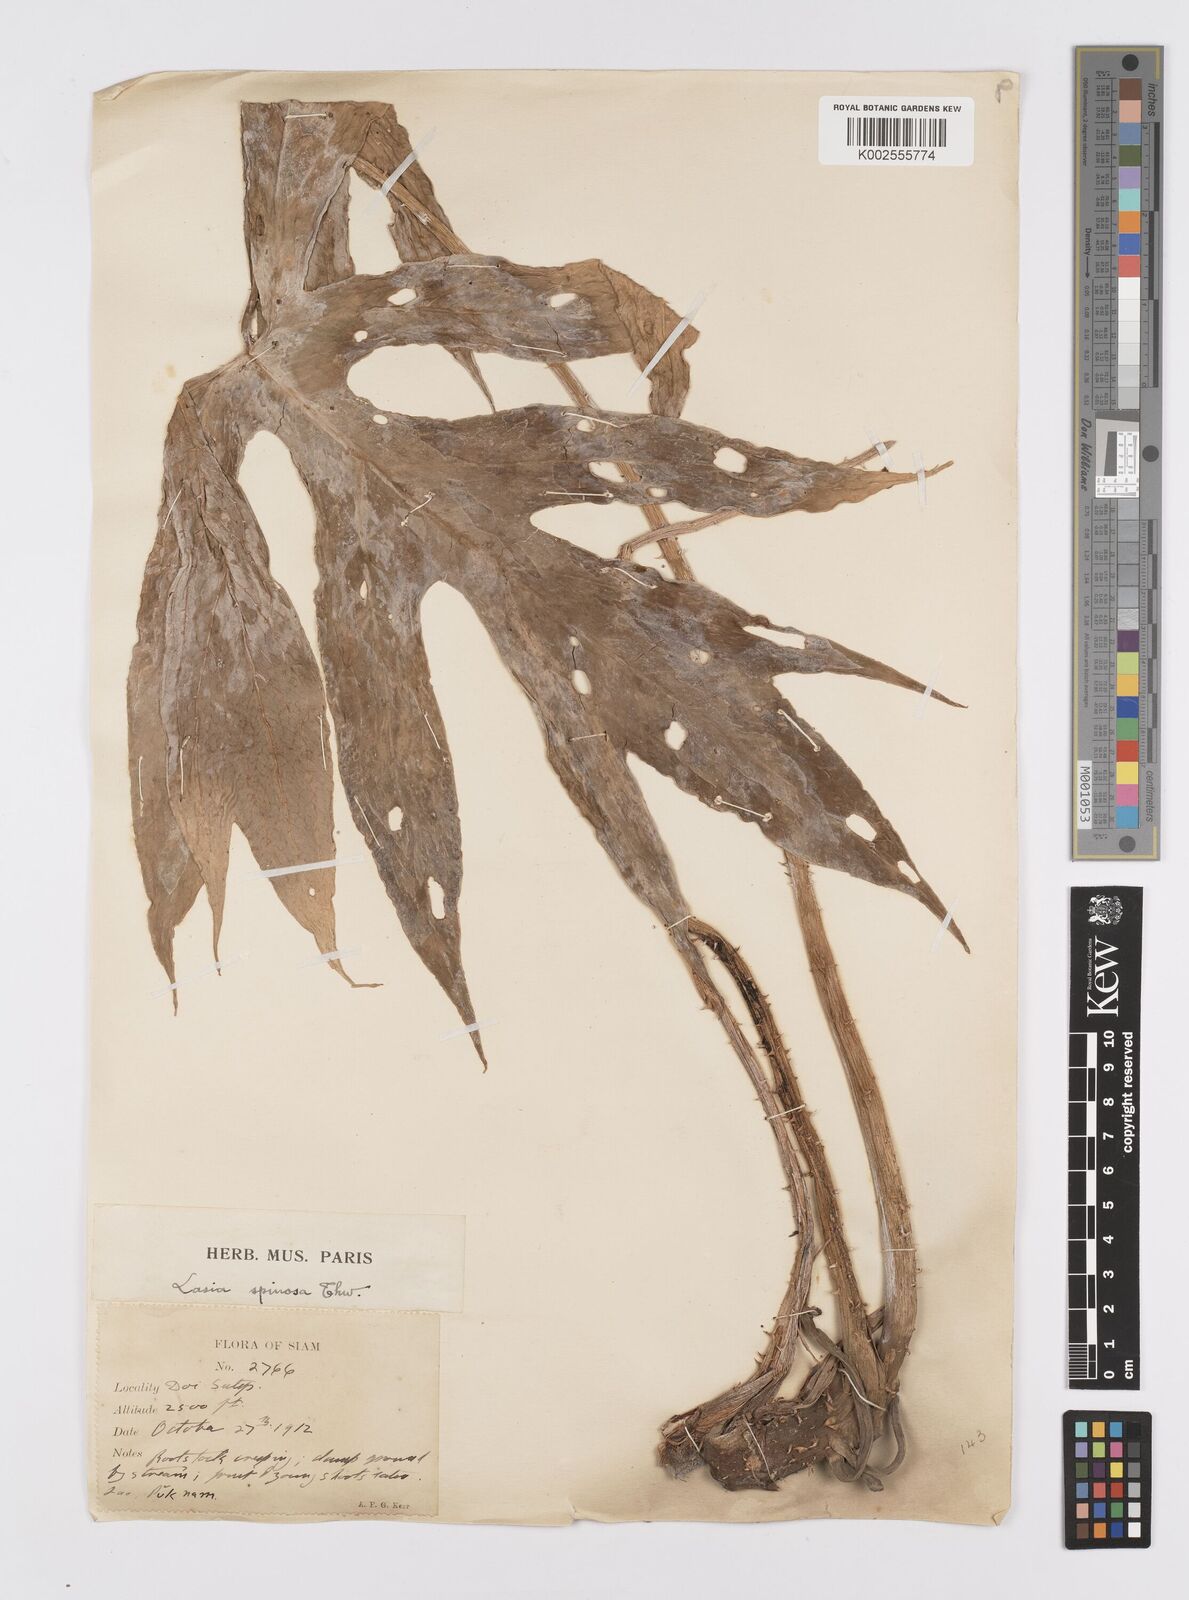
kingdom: Plantae
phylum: Tracheophyta
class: Liliopsida
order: Alismatales
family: Araceae
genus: Lasia
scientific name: Lasia spinosa
